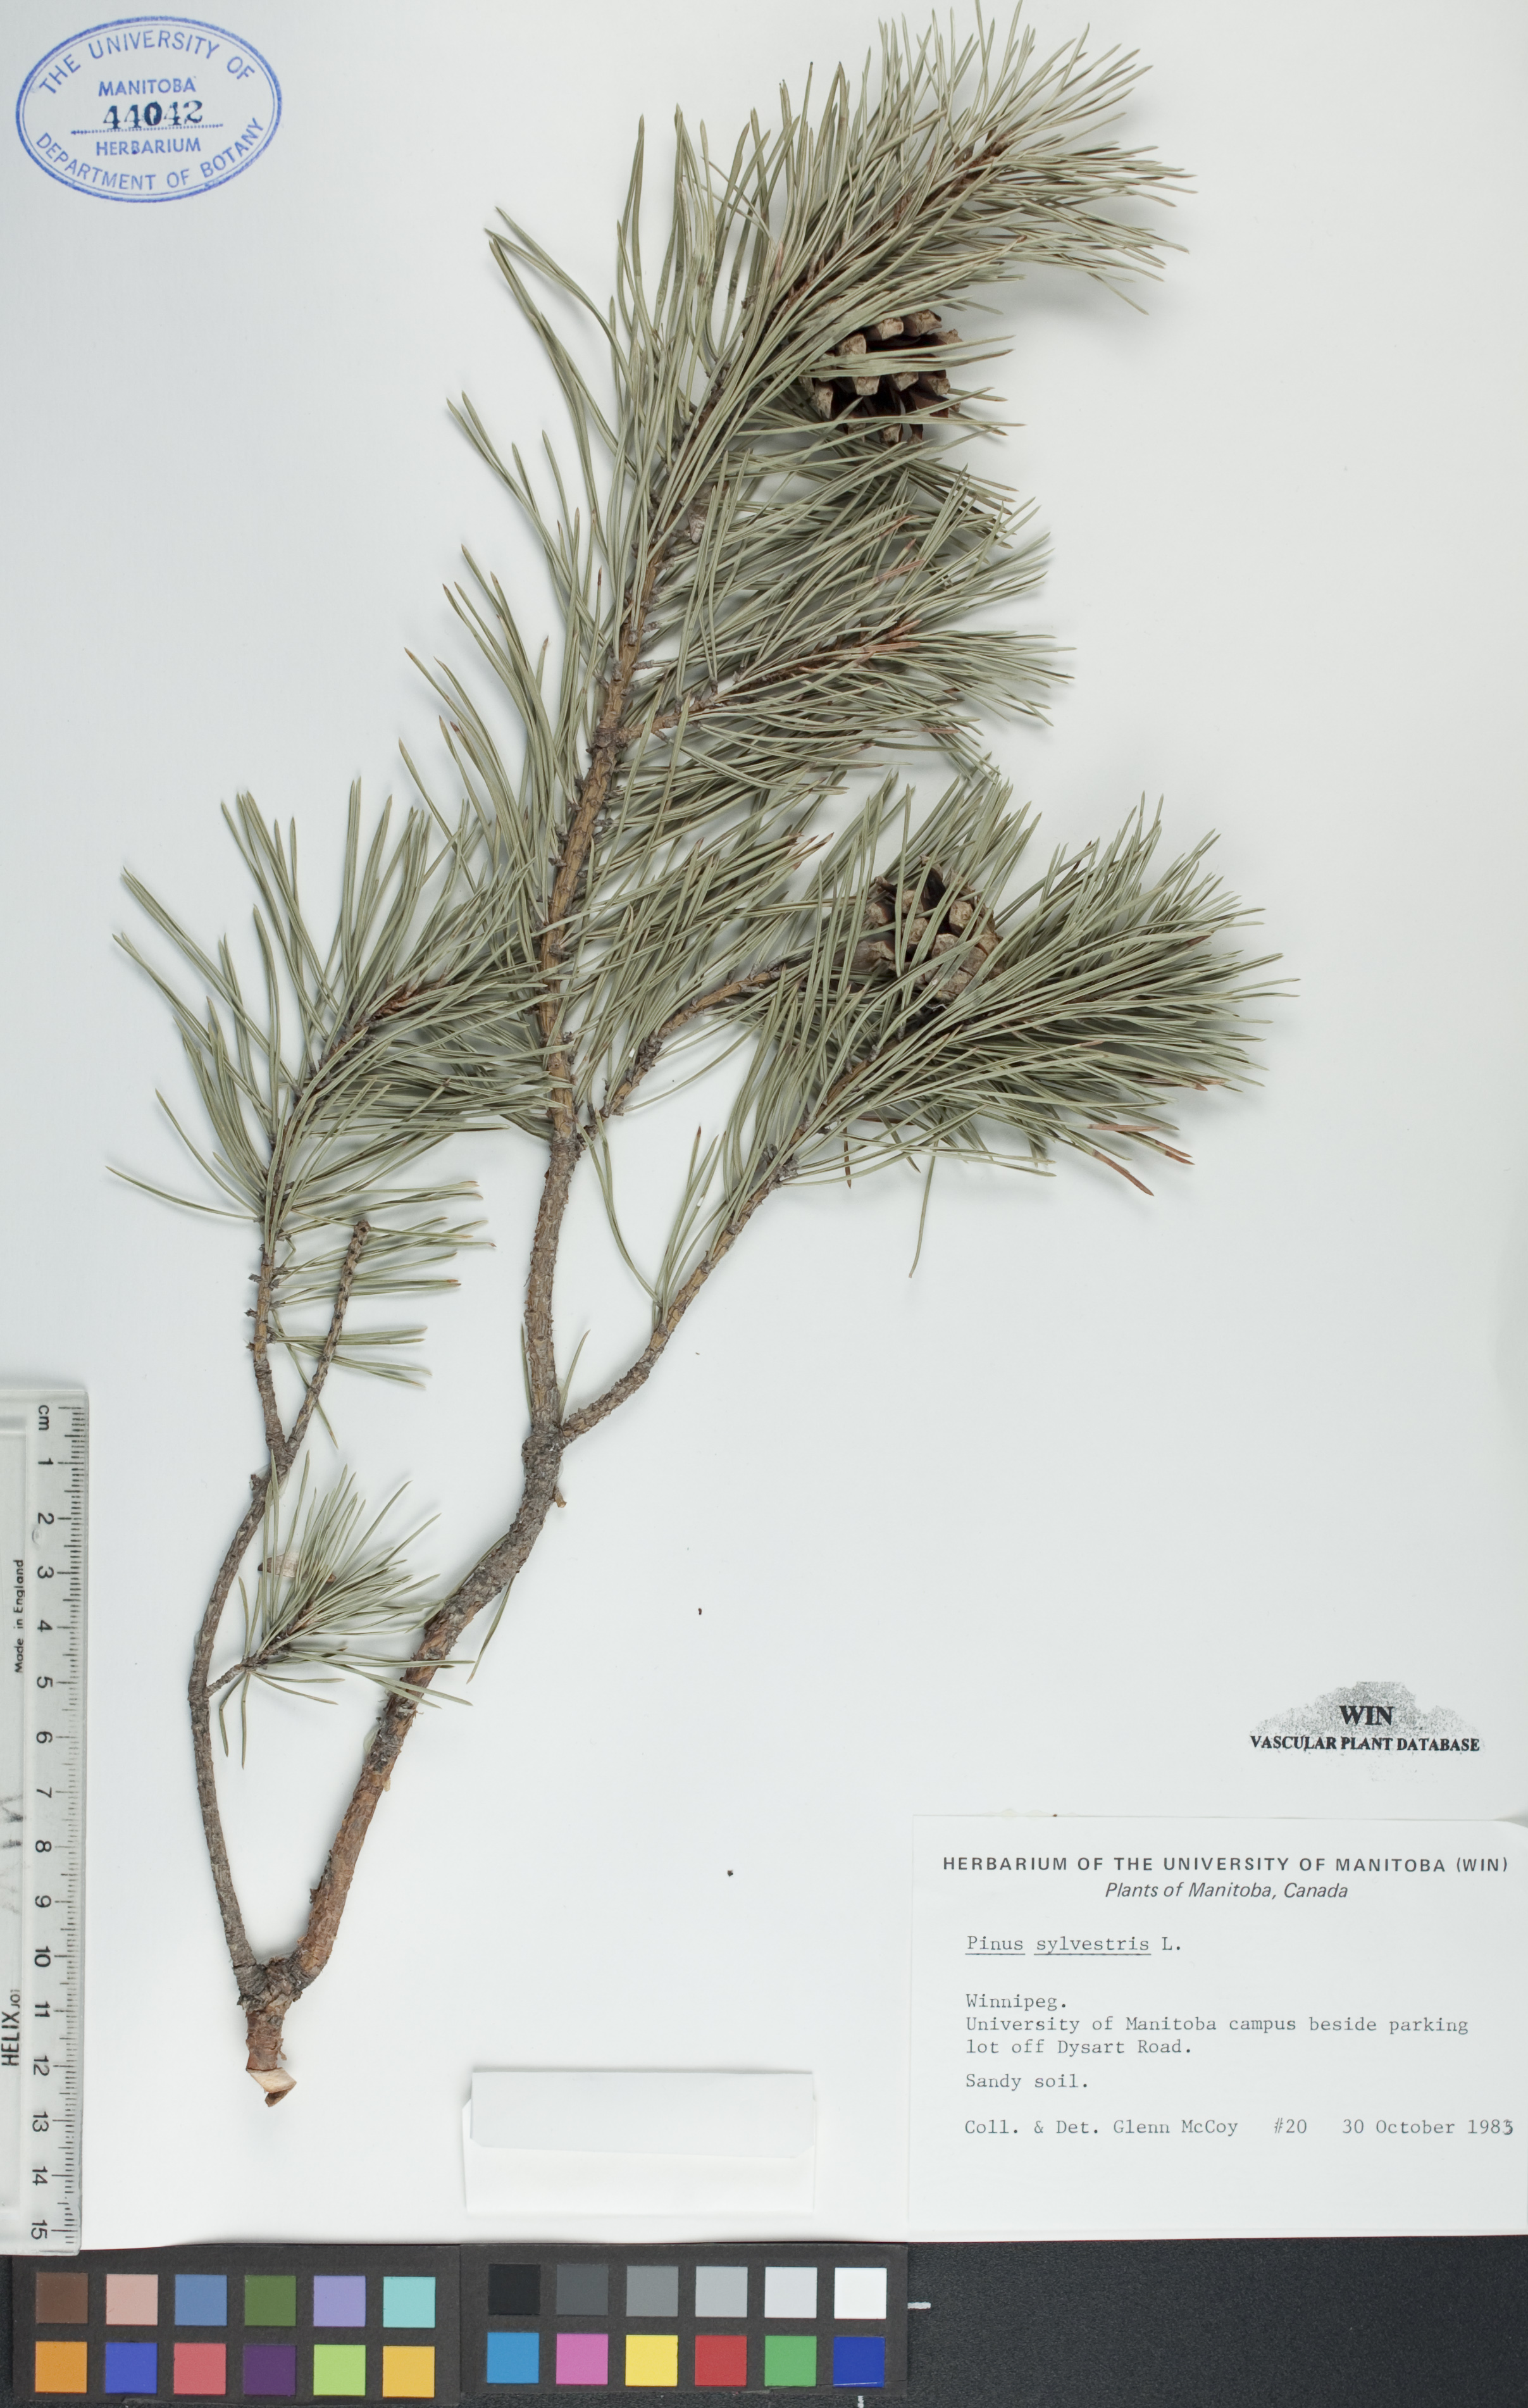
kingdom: Plantae
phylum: Tracheophyta
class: Pinopsida
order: Pinales
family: Pinaceae
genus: Pinus
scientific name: Pinus sylvestris
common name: Scots pine
